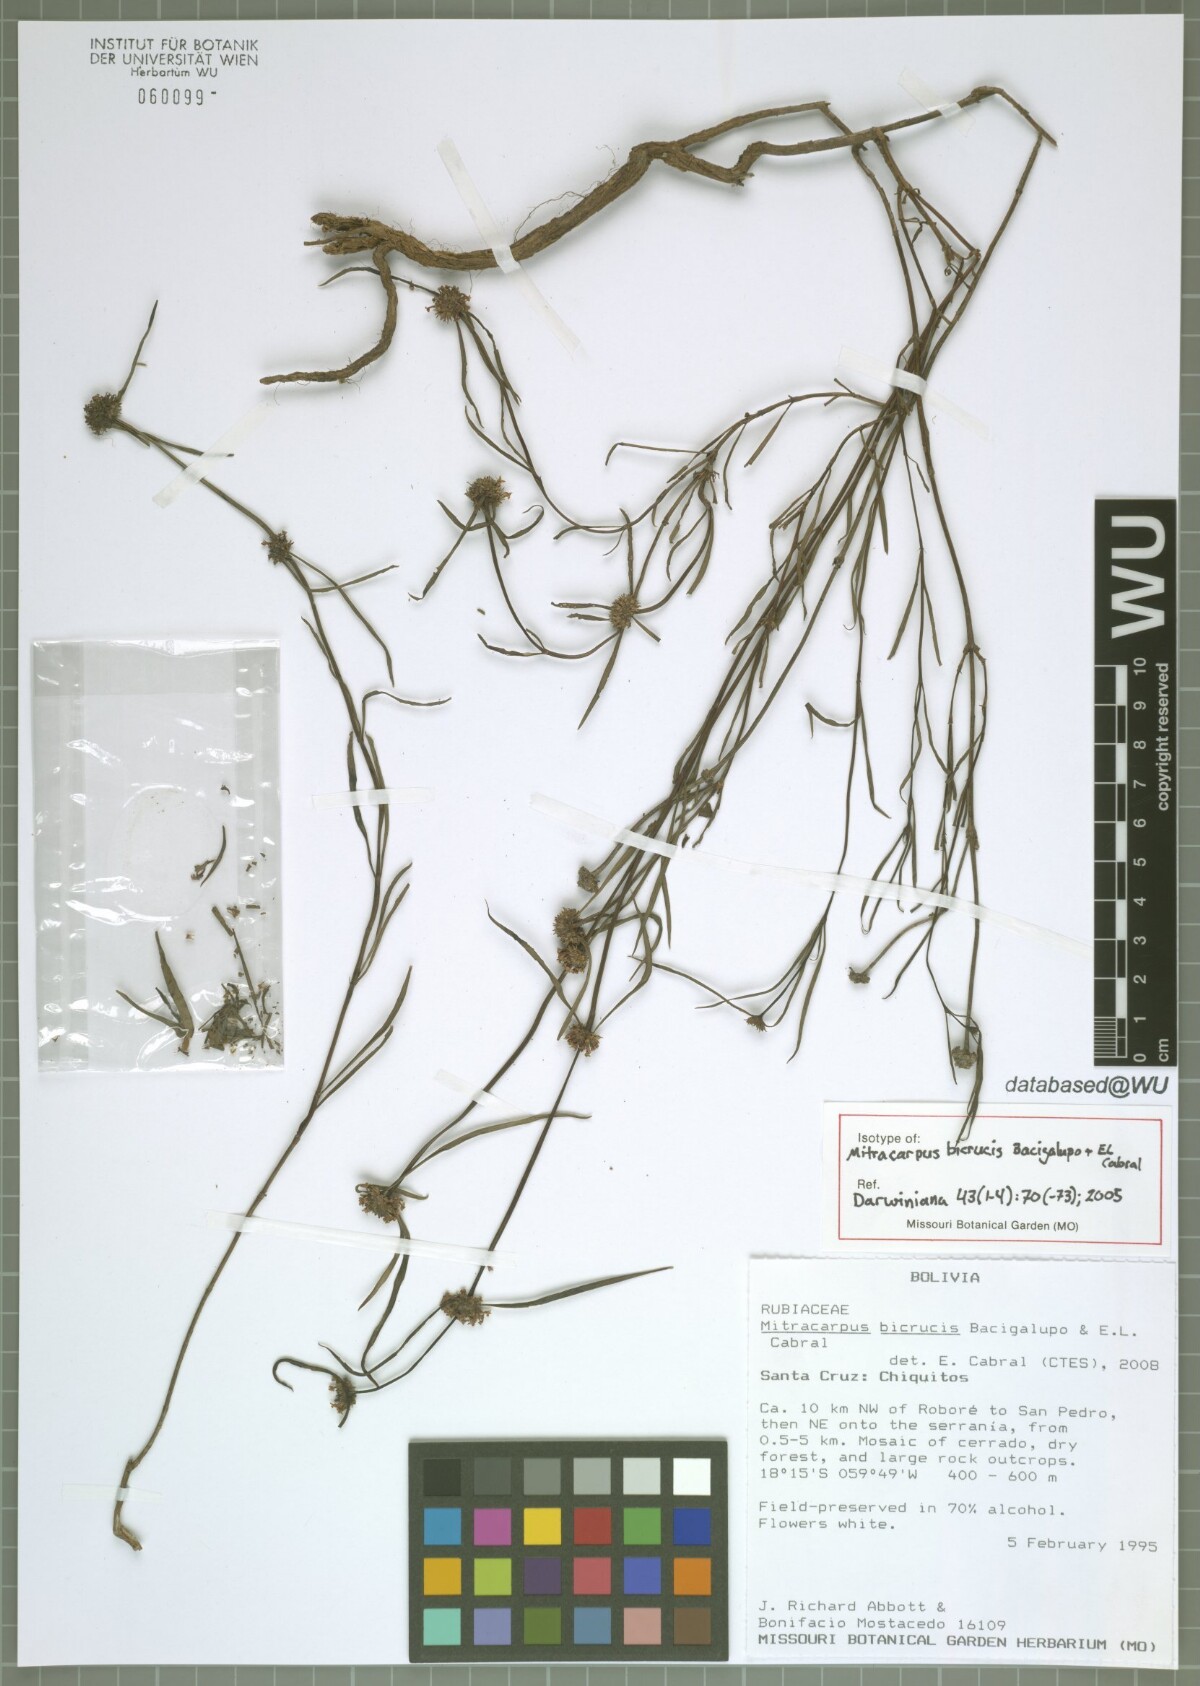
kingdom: Plantae
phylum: Tracheophyta
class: Magnoliopsida
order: Gentianales
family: Rubiaceae
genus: Mitracarpus
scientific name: Mitracarpus bicrucis
